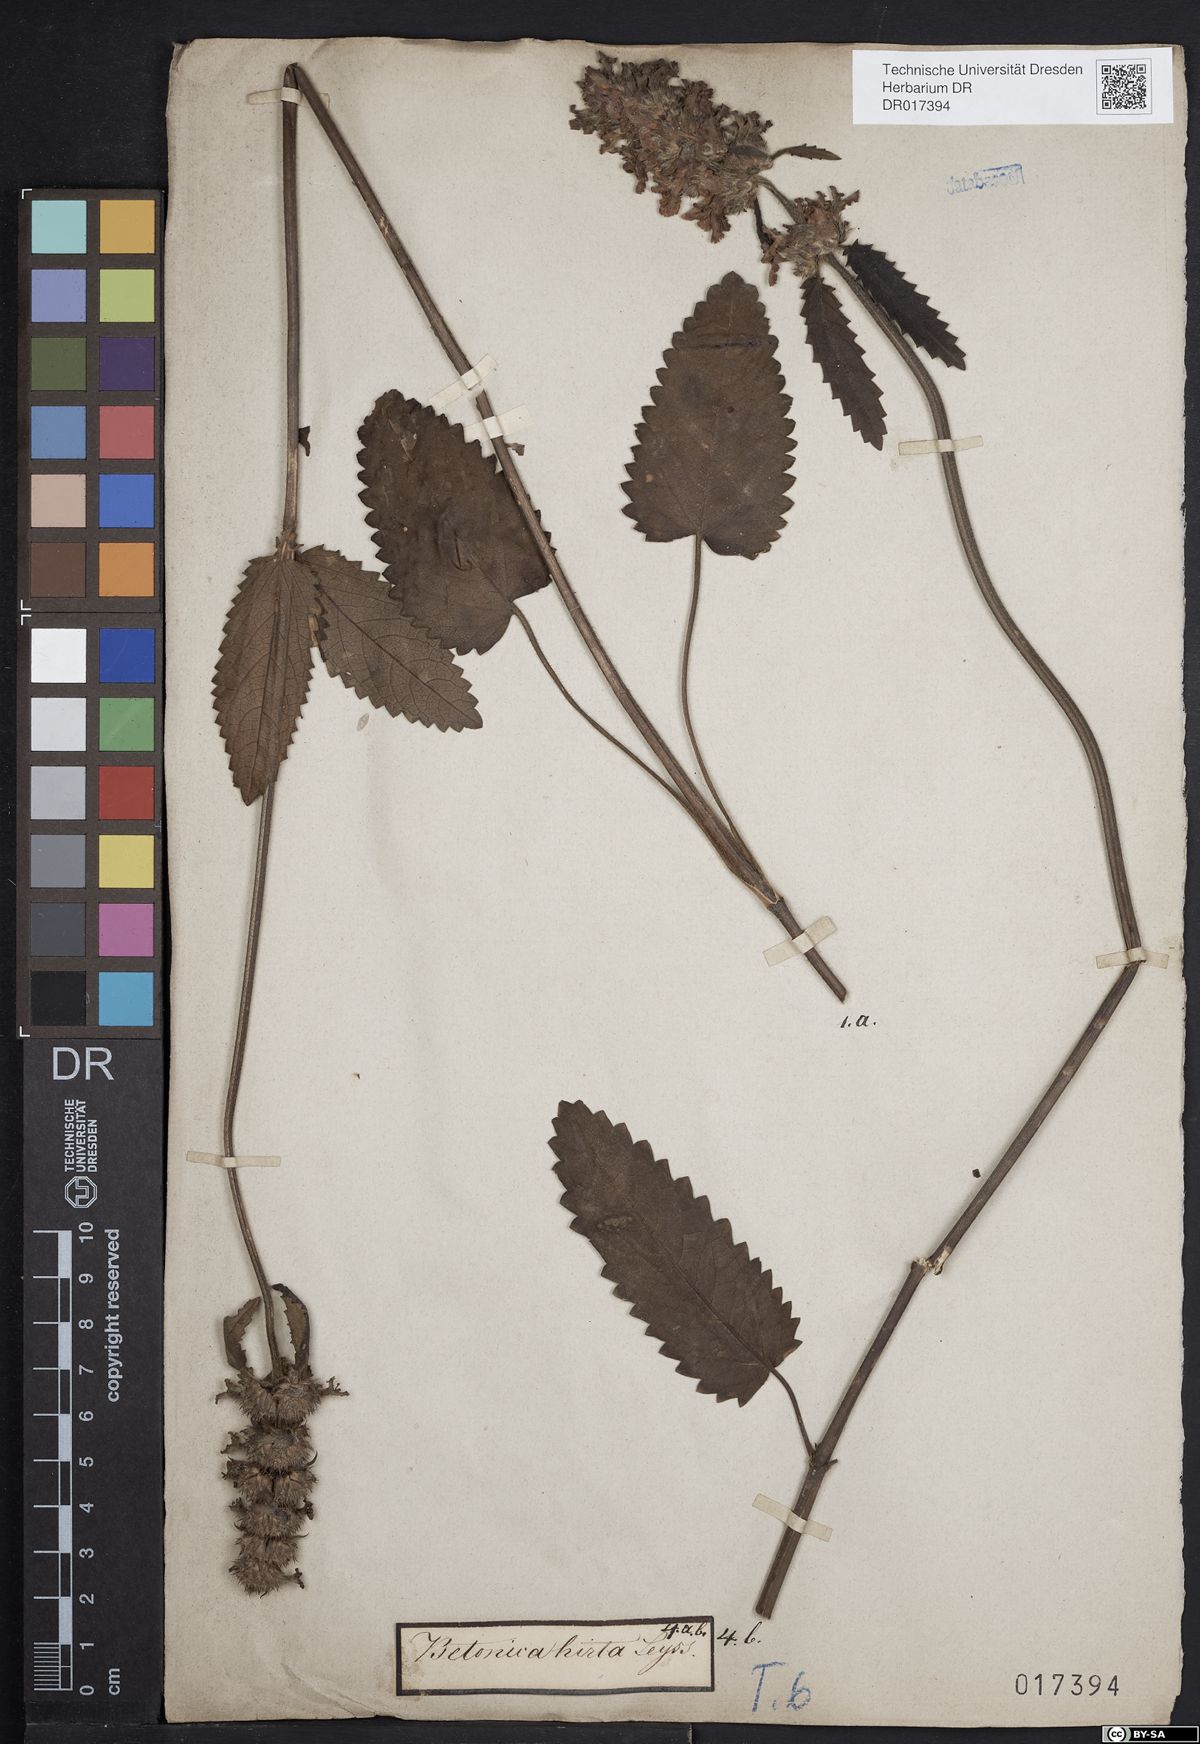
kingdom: Plantae
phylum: Tracheophyta
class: Magnoliopsida
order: Lamiales
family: Lamiaceae
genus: Betonica
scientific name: Betonica officinalis
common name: Bishop's-wort
